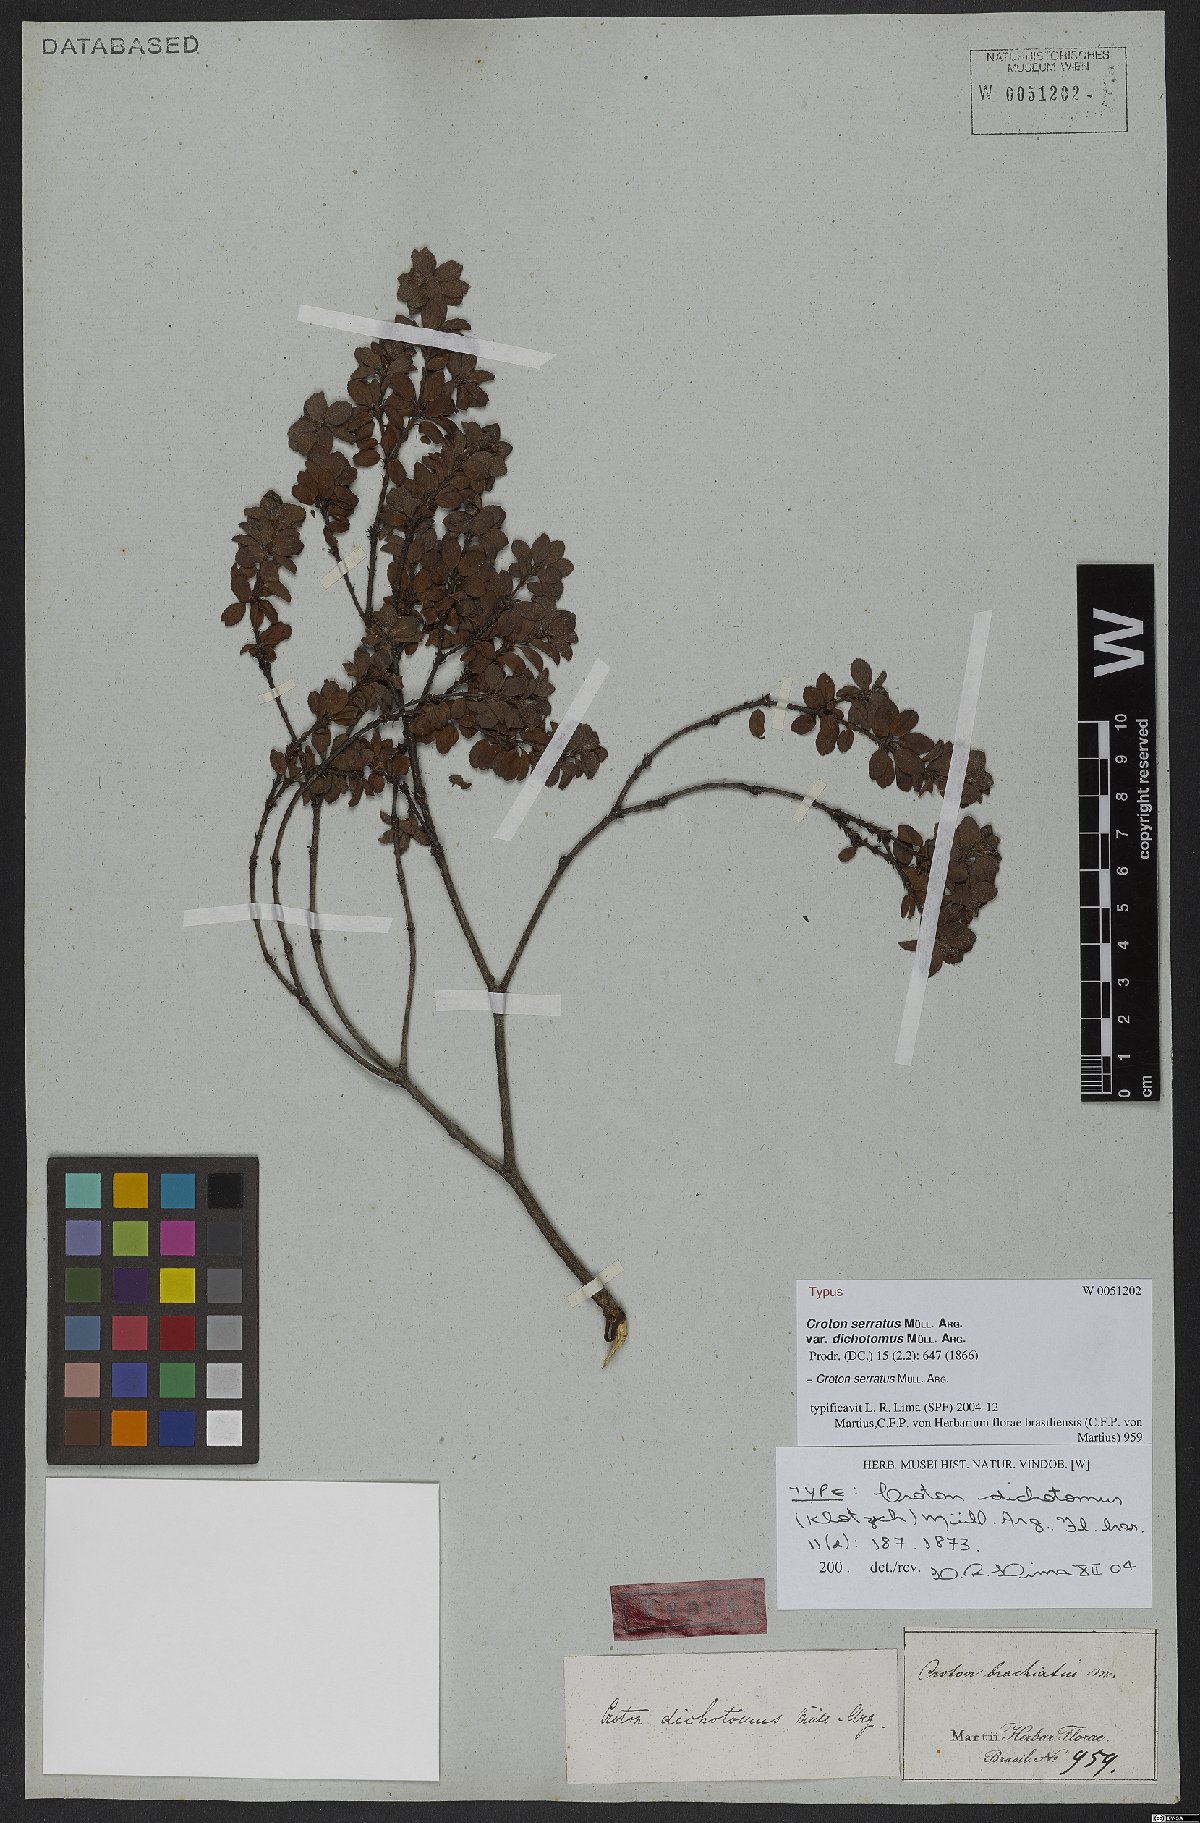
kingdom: Plantae
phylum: Tracheophyta
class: Magnoliopsida
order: Malpighiales
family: Euphorbiaceae
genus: Croton
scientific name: Croton serratus
